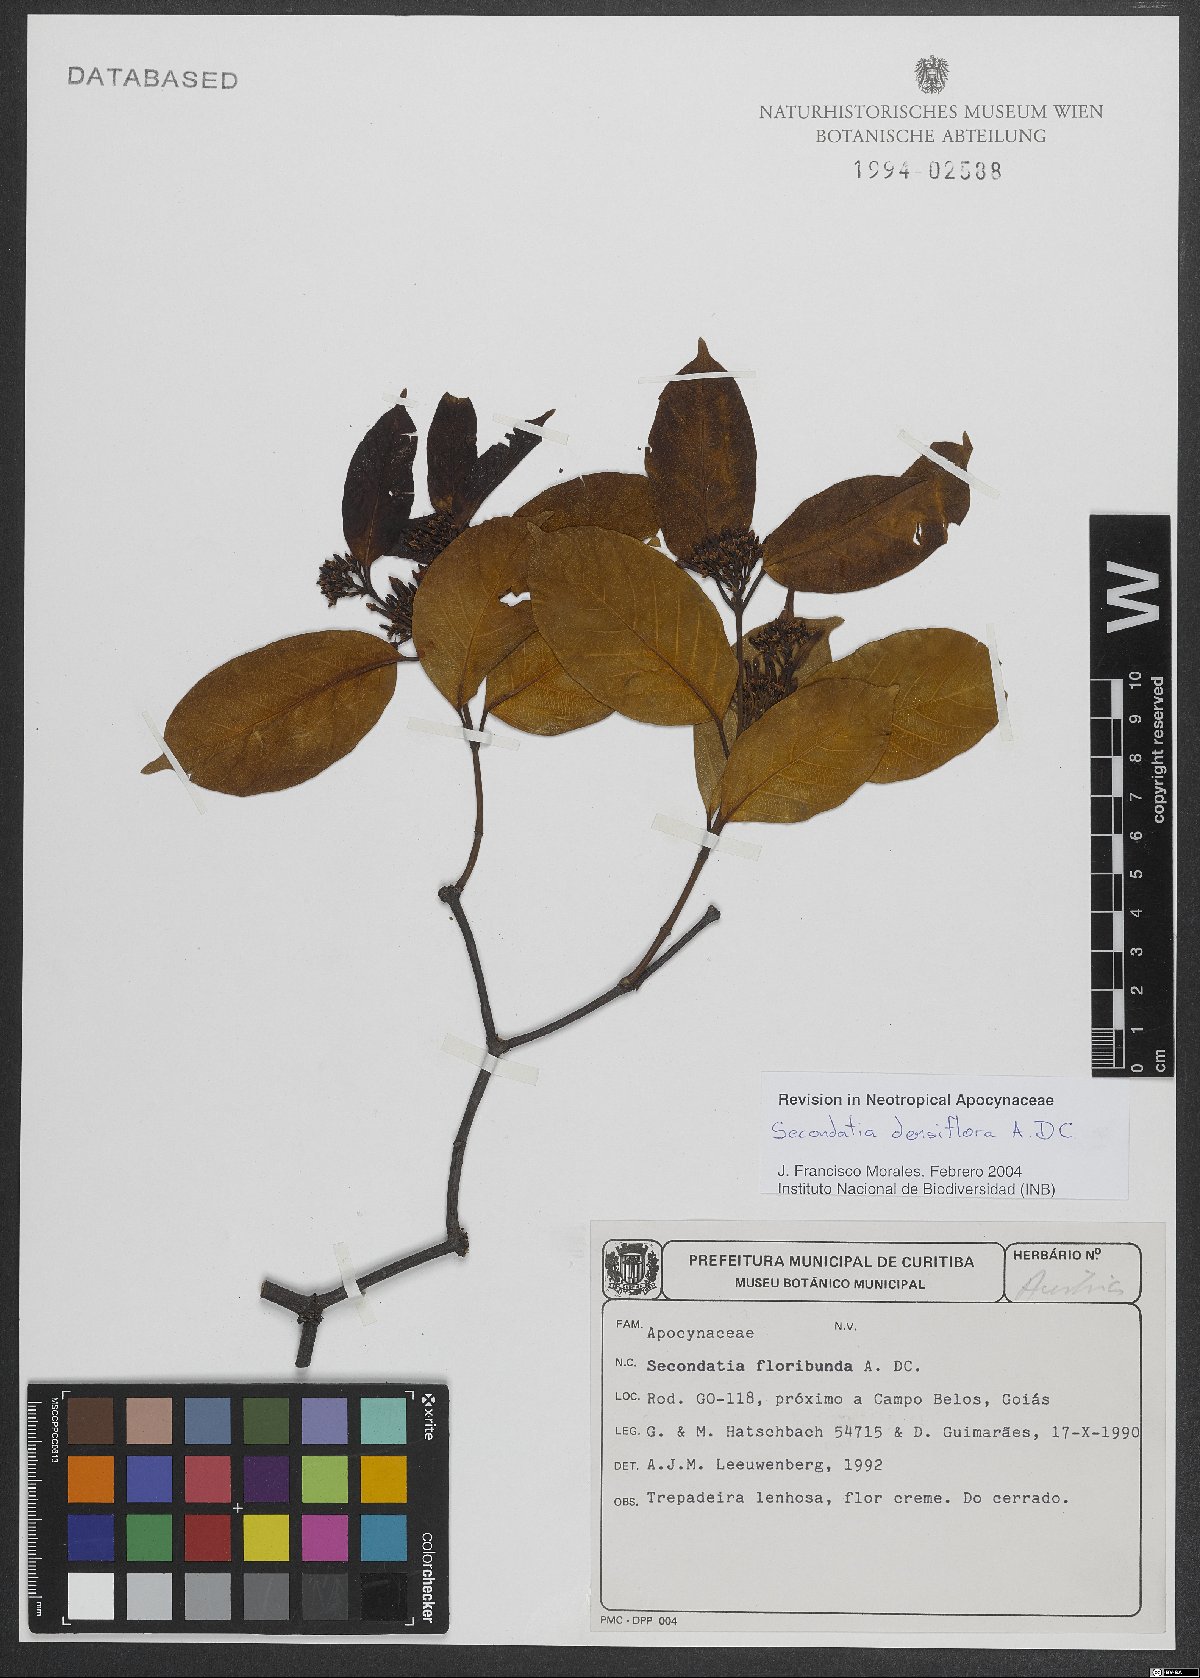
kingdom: Plantae
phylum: Tracheophyta
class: Magnoliopsida
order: Gentianales
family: Apocynaceae
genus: Secondatia
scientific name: Secondatia densiflora
